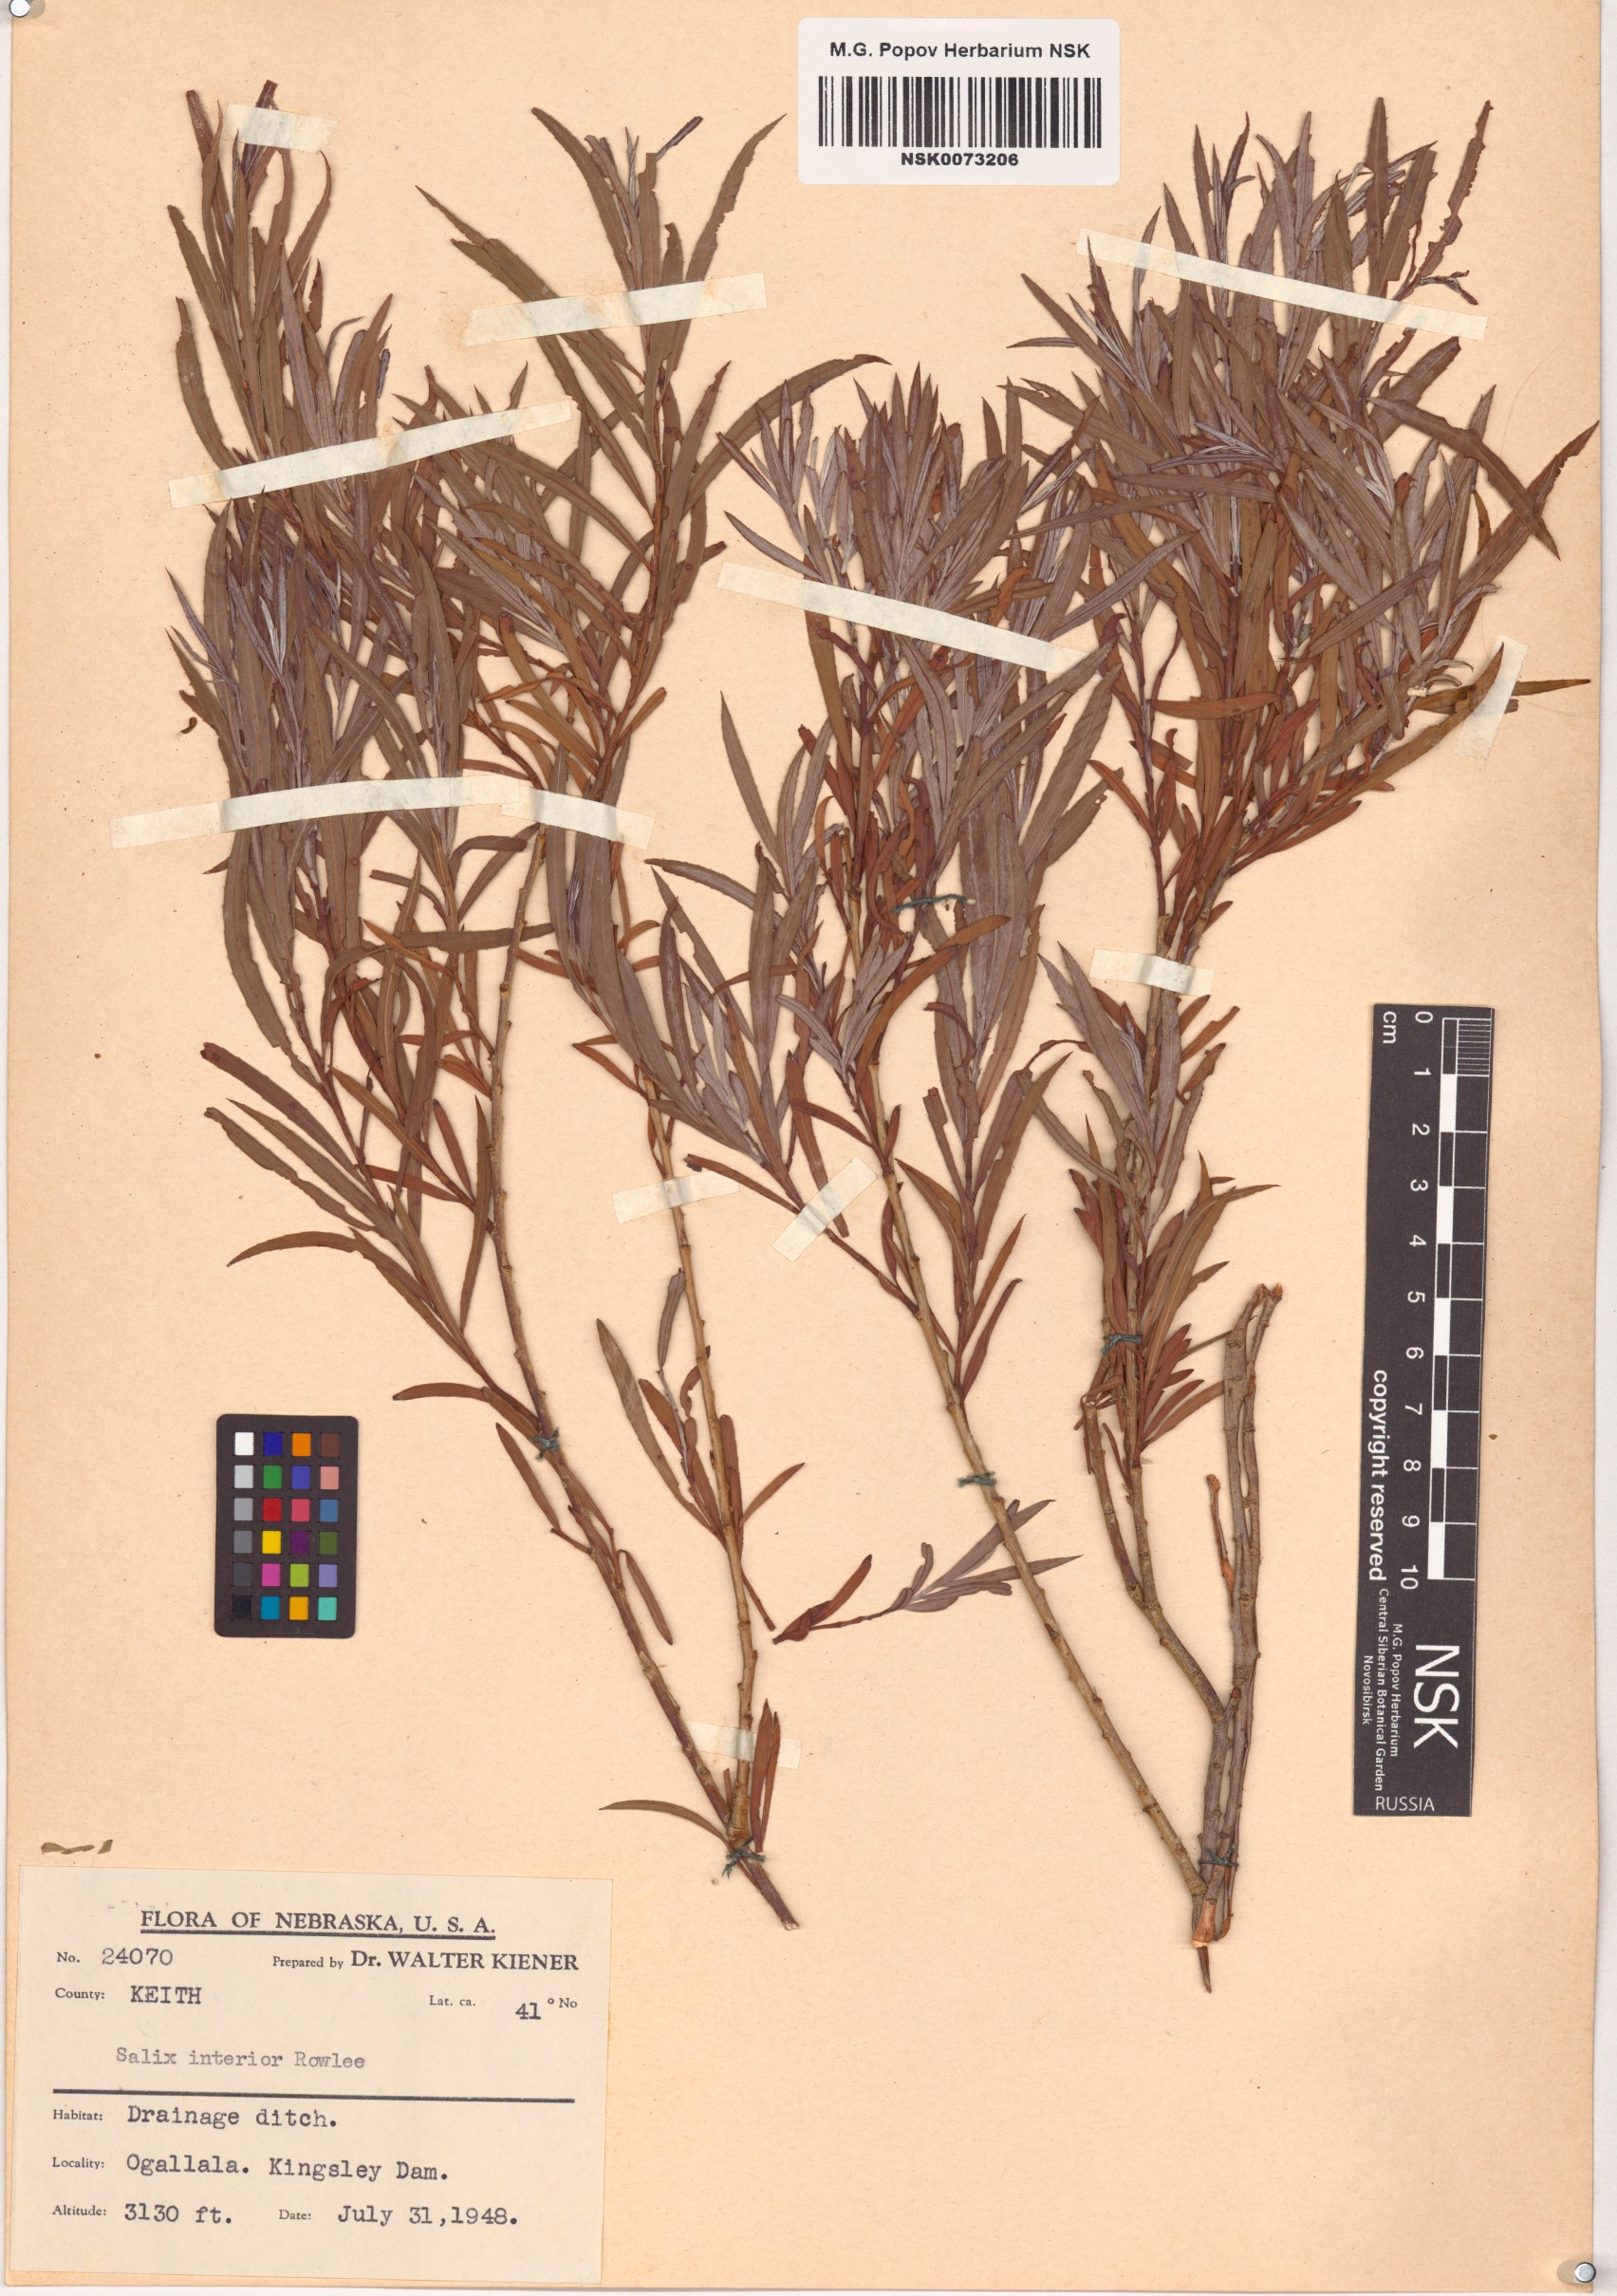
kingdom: Plantae
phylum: Tracheophyta
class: Magnoliopsida
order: Malpighiales
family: Salicaceae
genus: Salix
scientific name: Salix interior
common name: Sandbar willow
